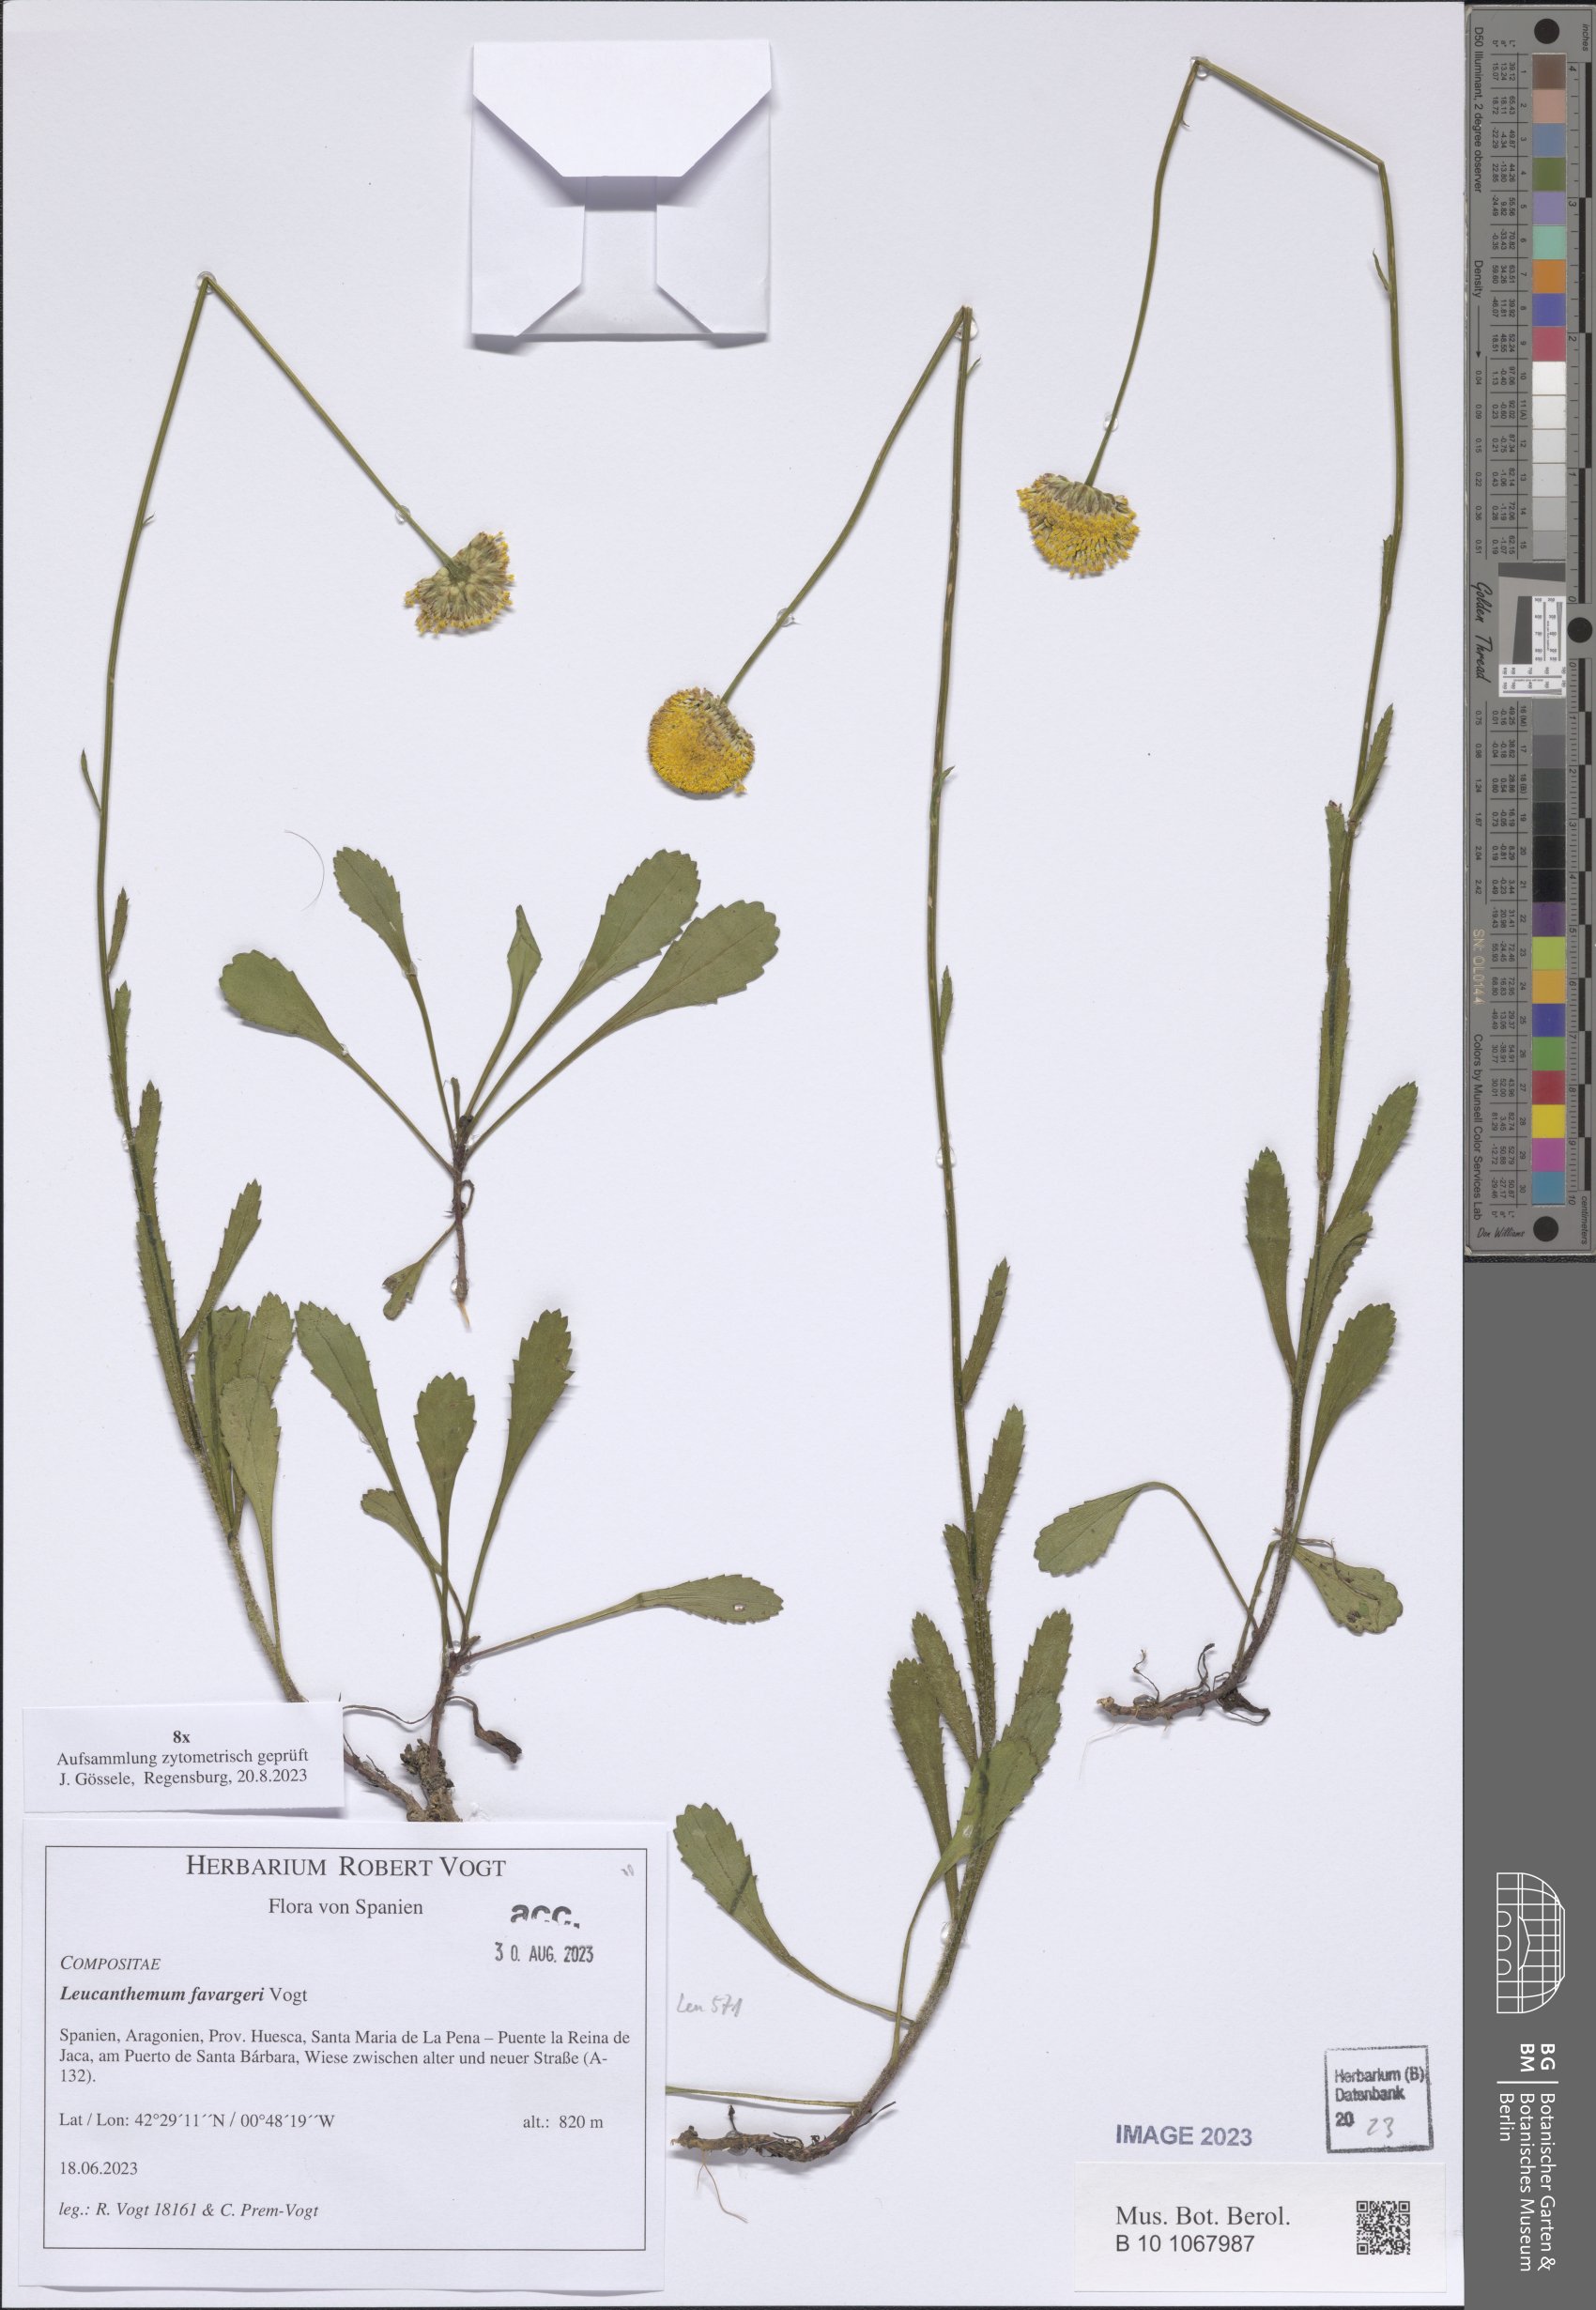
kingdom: Plantae
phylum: Tracheophyta
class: Magnoliopsida
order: Asterales
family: Asteraceae
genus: Leucanthemum
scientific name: Leucanthemum favargeri
